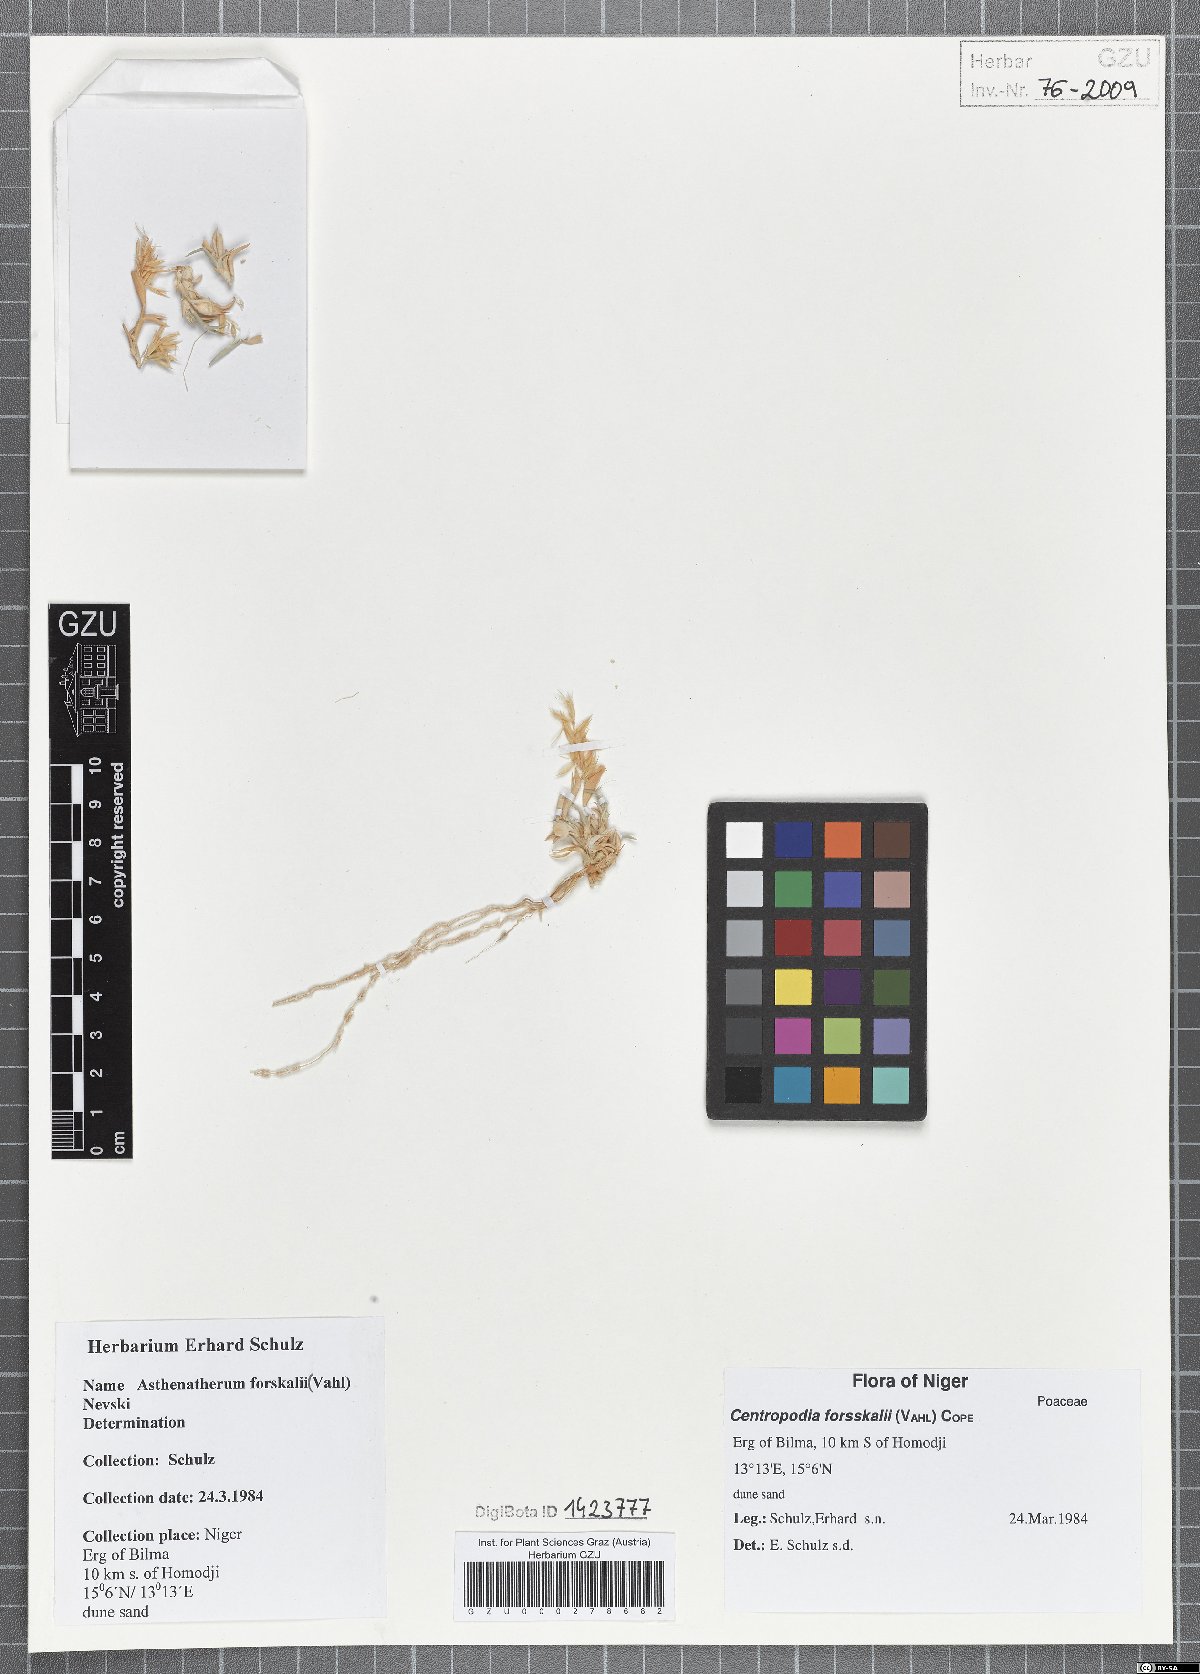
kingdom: Plantae
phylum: Tracheophyta
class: Liliopsida
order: Poales
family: Poaceae
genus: Centropodia
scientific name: Centropodia forsskalii
